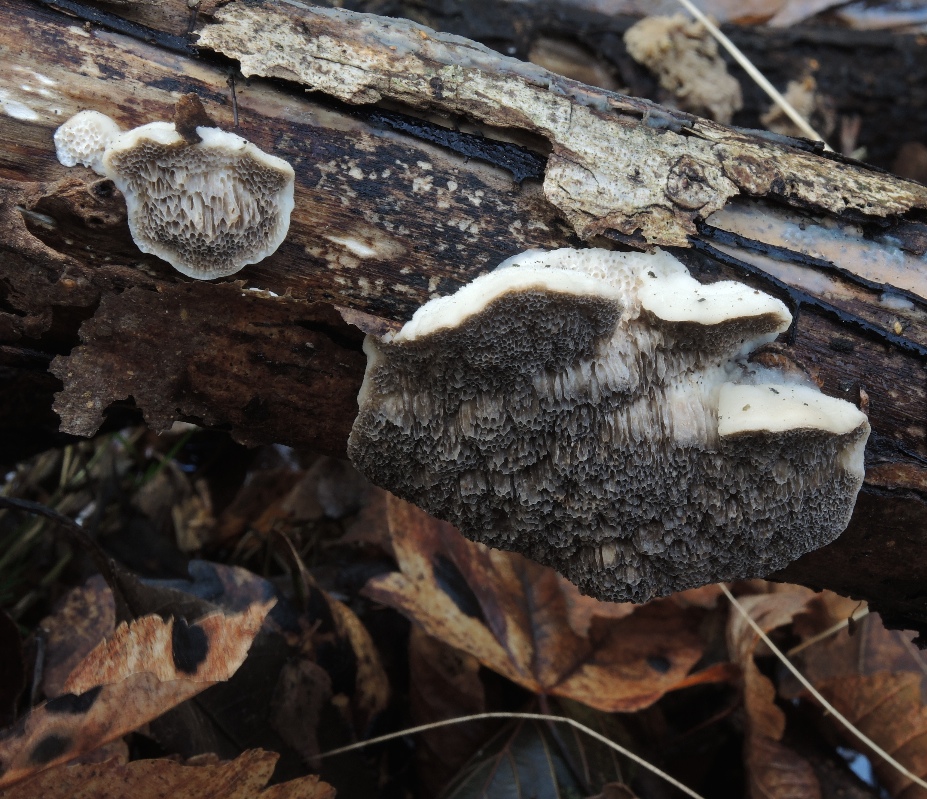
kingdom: Fungi
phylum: Basidiomycota
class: Agaricomycetes
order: Polyporales
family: Polyporaceae
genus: Trametes
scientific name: Trametes suaveolens
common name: vellugtende læderporesvamp
